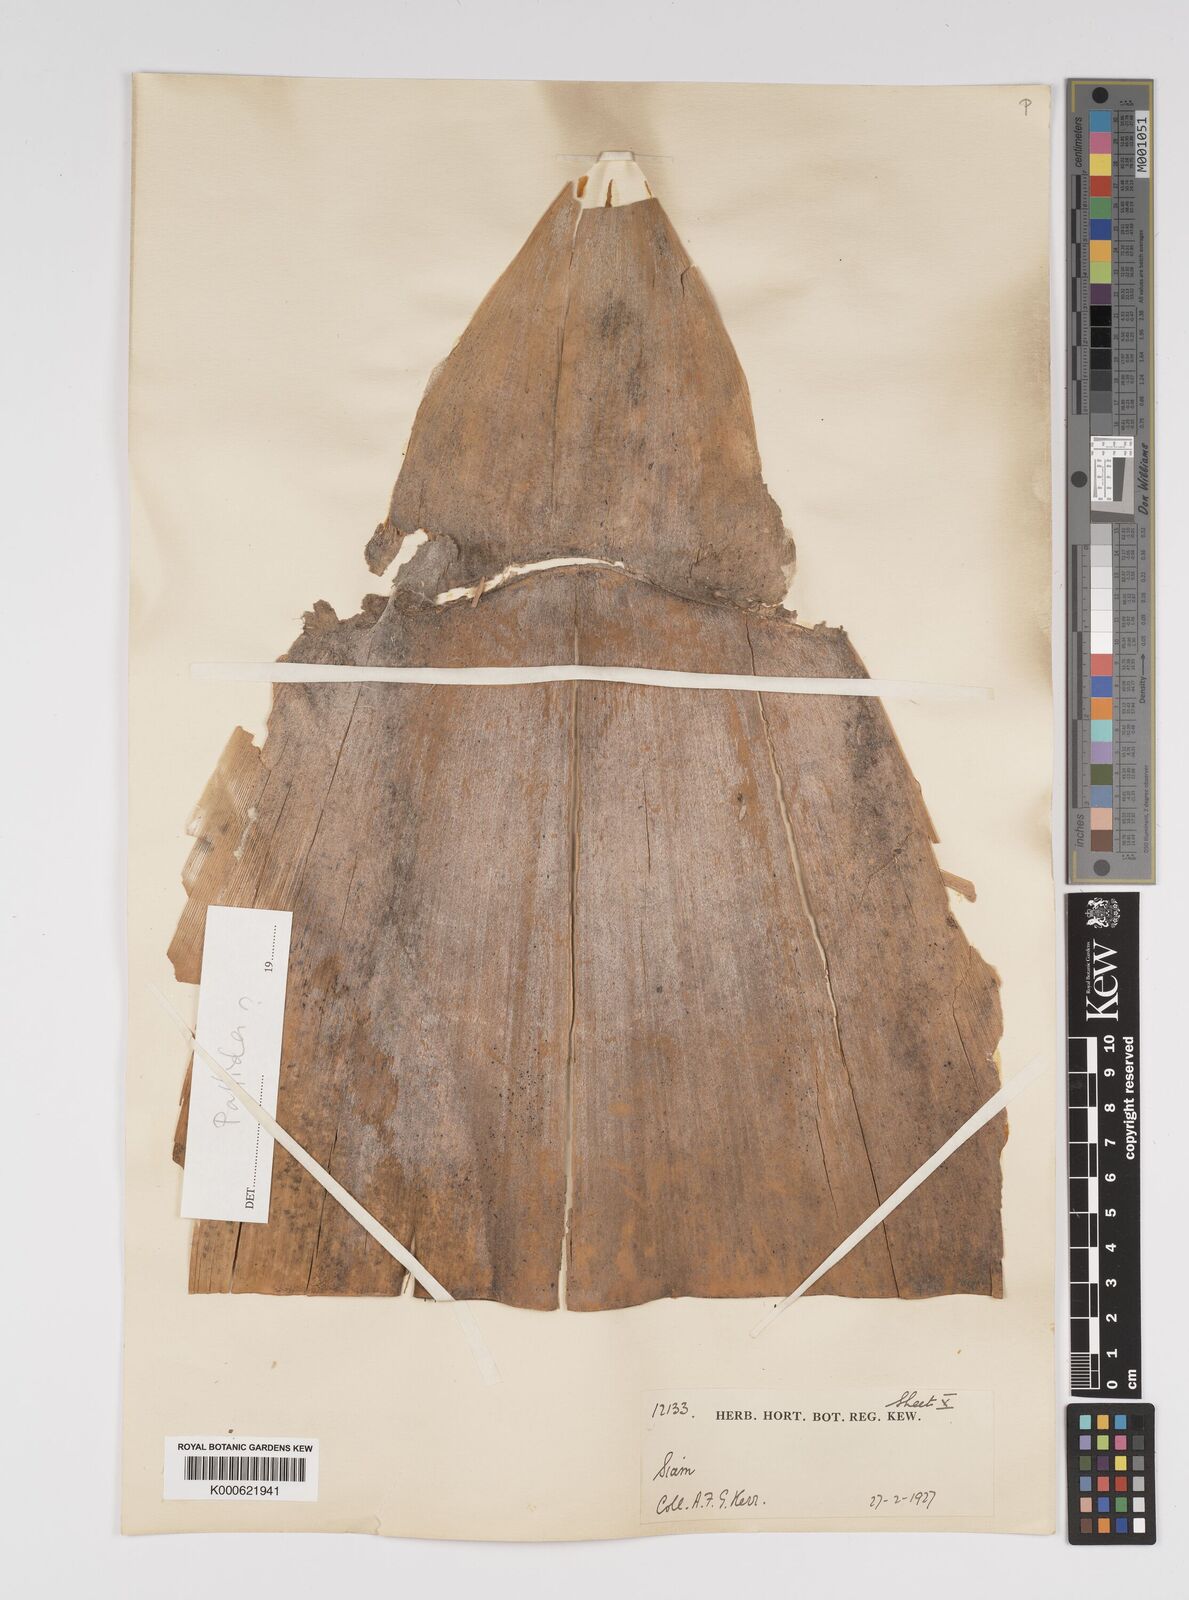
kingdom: Plantae
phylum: Tracheophyta
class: Liliopsida
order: Poales
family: Poaceae
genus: Bambusa
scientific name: Bambusa
